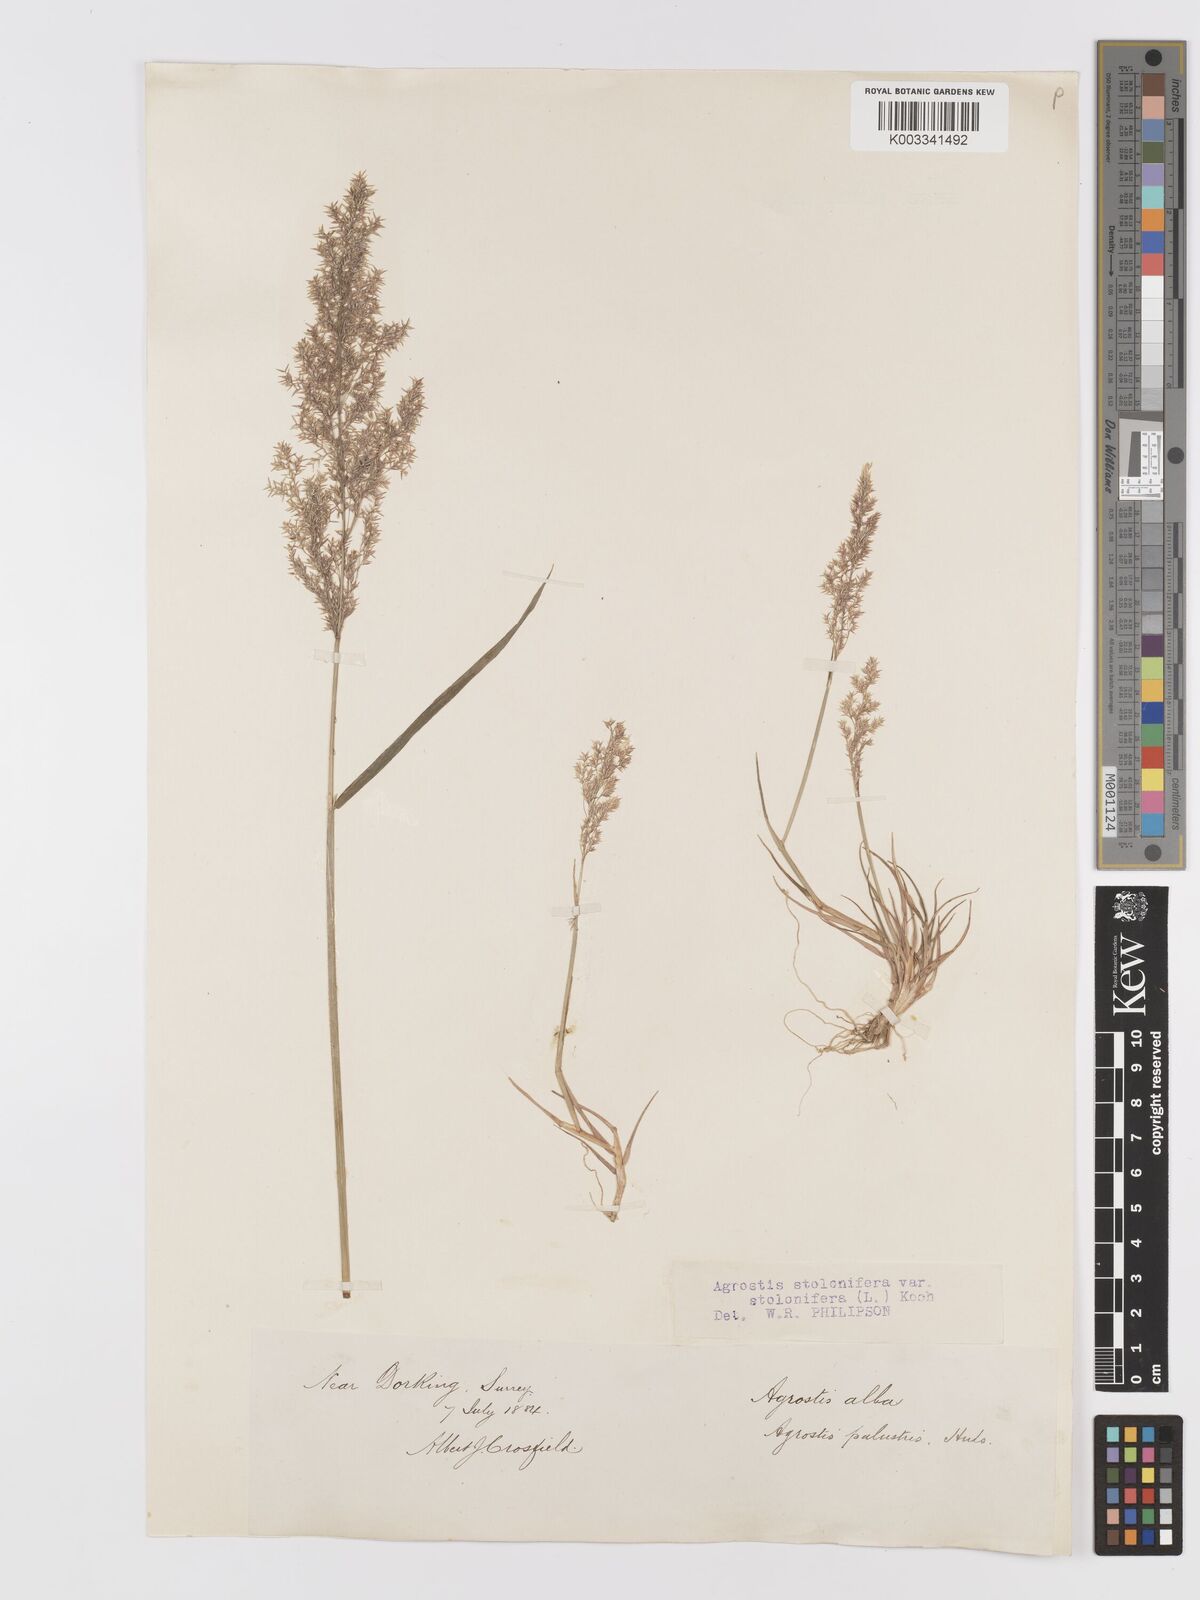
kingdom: Plantae
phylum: Tracheophyta
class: Liliopsida
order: Poales
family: Poaceae
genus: Agrostis
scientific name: Agrostis stolonifera
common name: Creeping bentgrass
